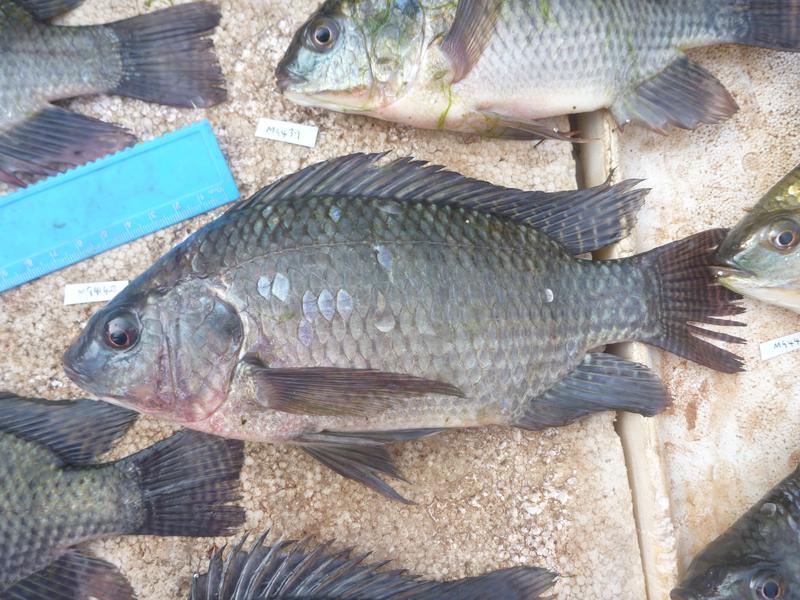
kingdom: Animalia
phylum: Chordata
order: Perciformes
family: Cichlidae
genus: Oreochromis
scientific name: Oreochromis niloticus
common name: Nile tilapia
